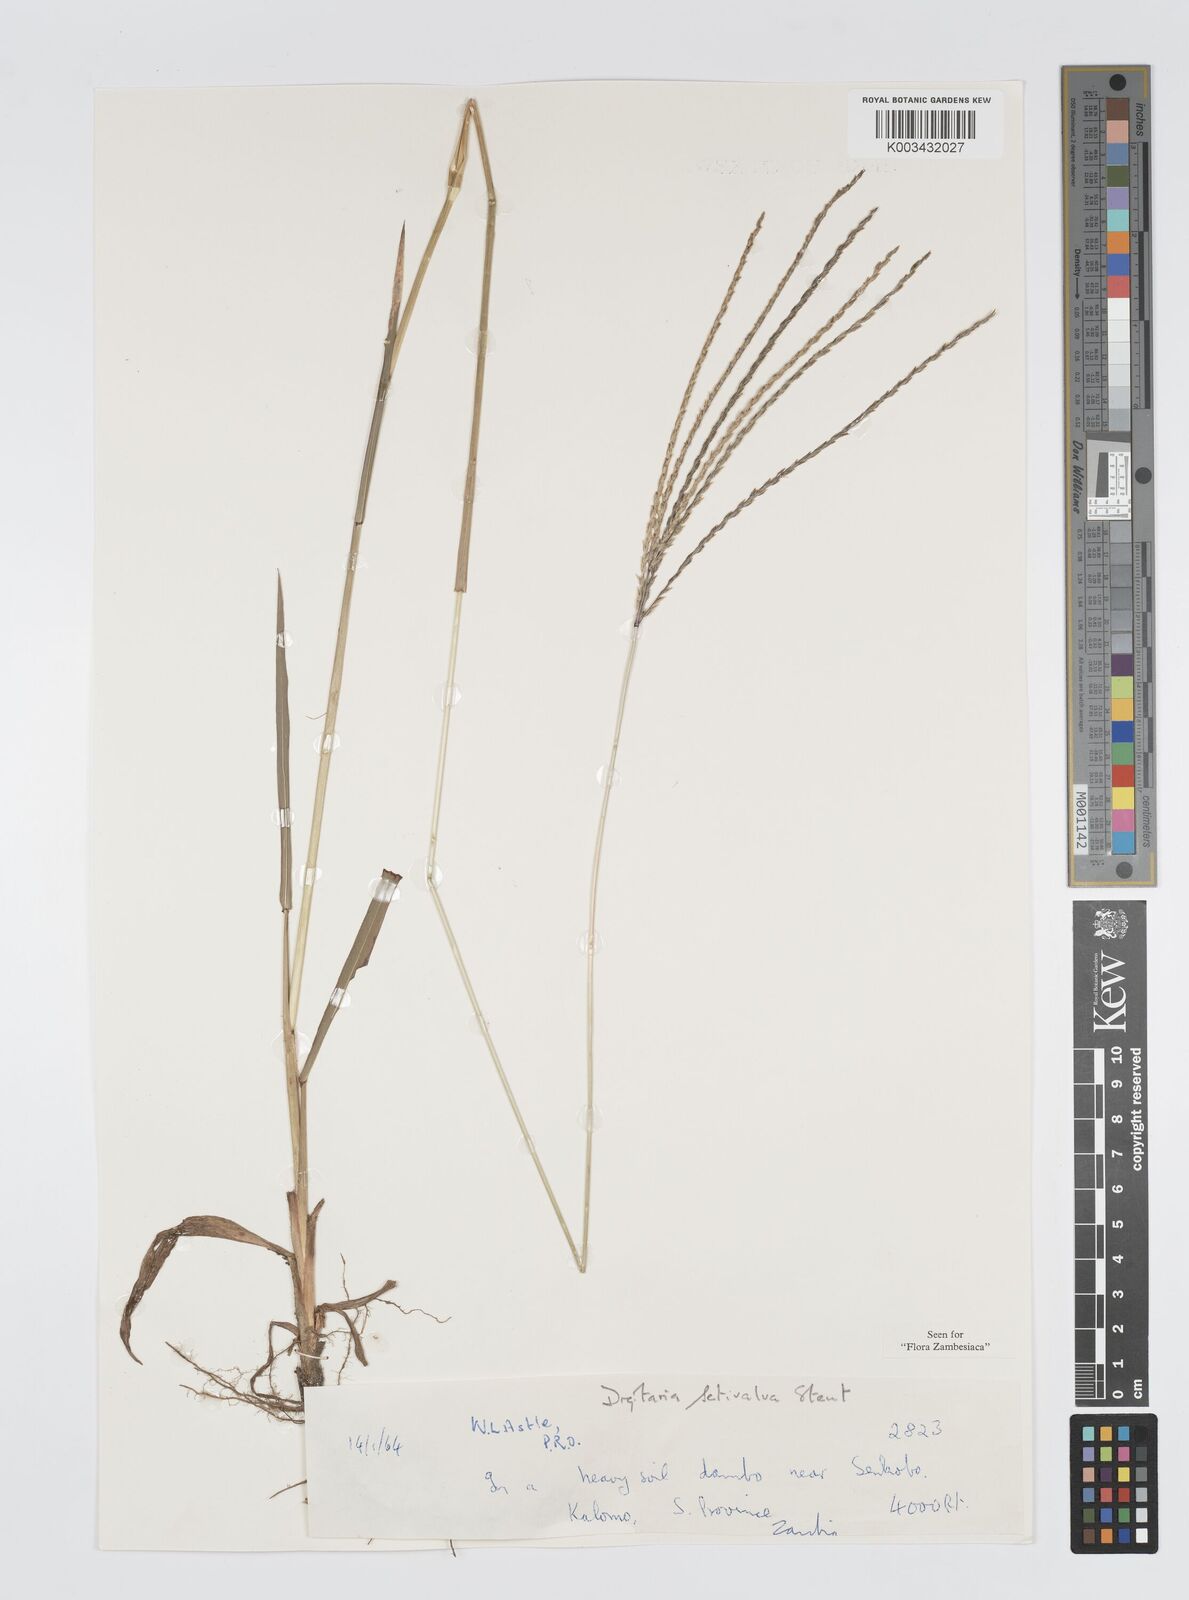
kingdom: Plantae
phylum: Tracheophyta
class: Liliopsida
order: Poales
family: Poaceae
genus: Digitaria
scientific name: Digitaria milanjiana
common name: Madagascar crabgrass
